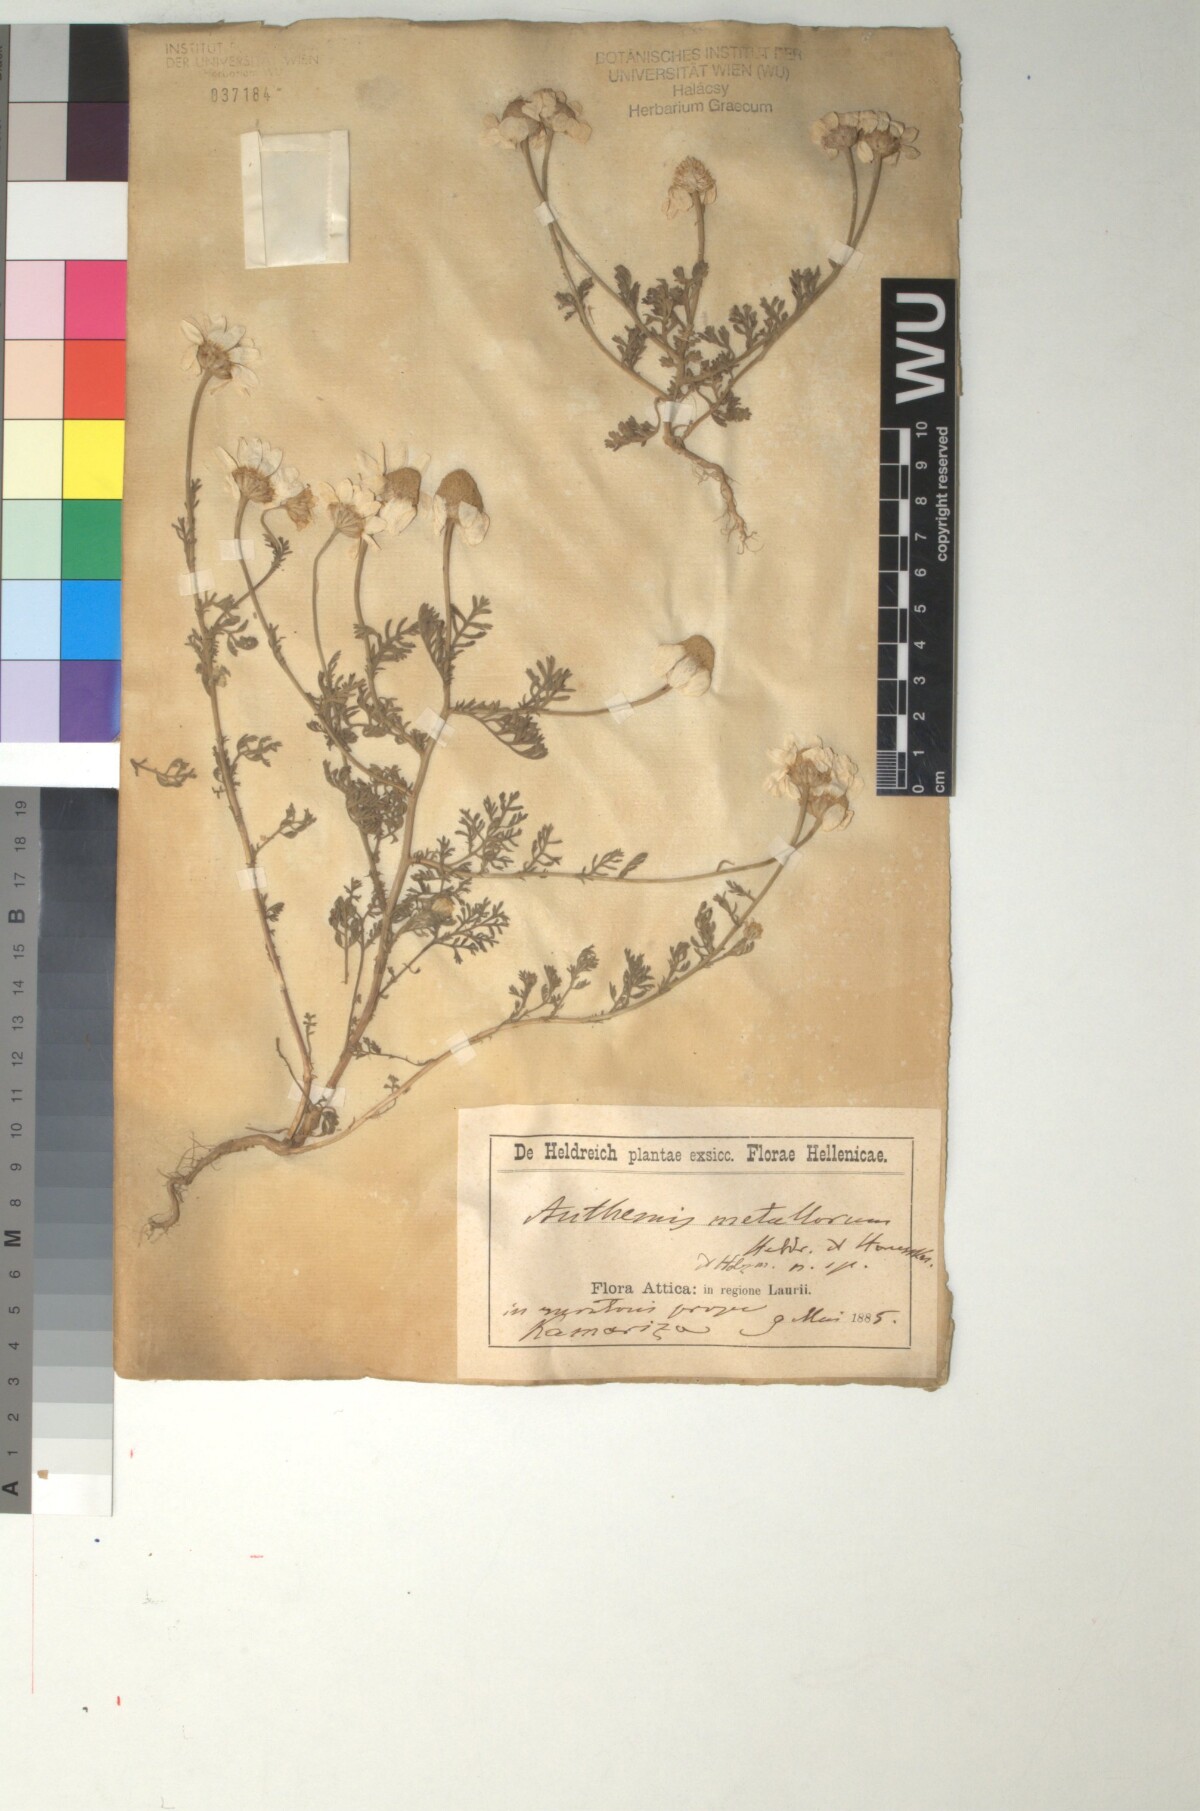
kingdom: Plantae
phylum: Tracheophyta
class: Magnoliopsida
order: Asterales
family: Asteraceae
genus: Anthemis
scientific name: Anthemis auriculata
